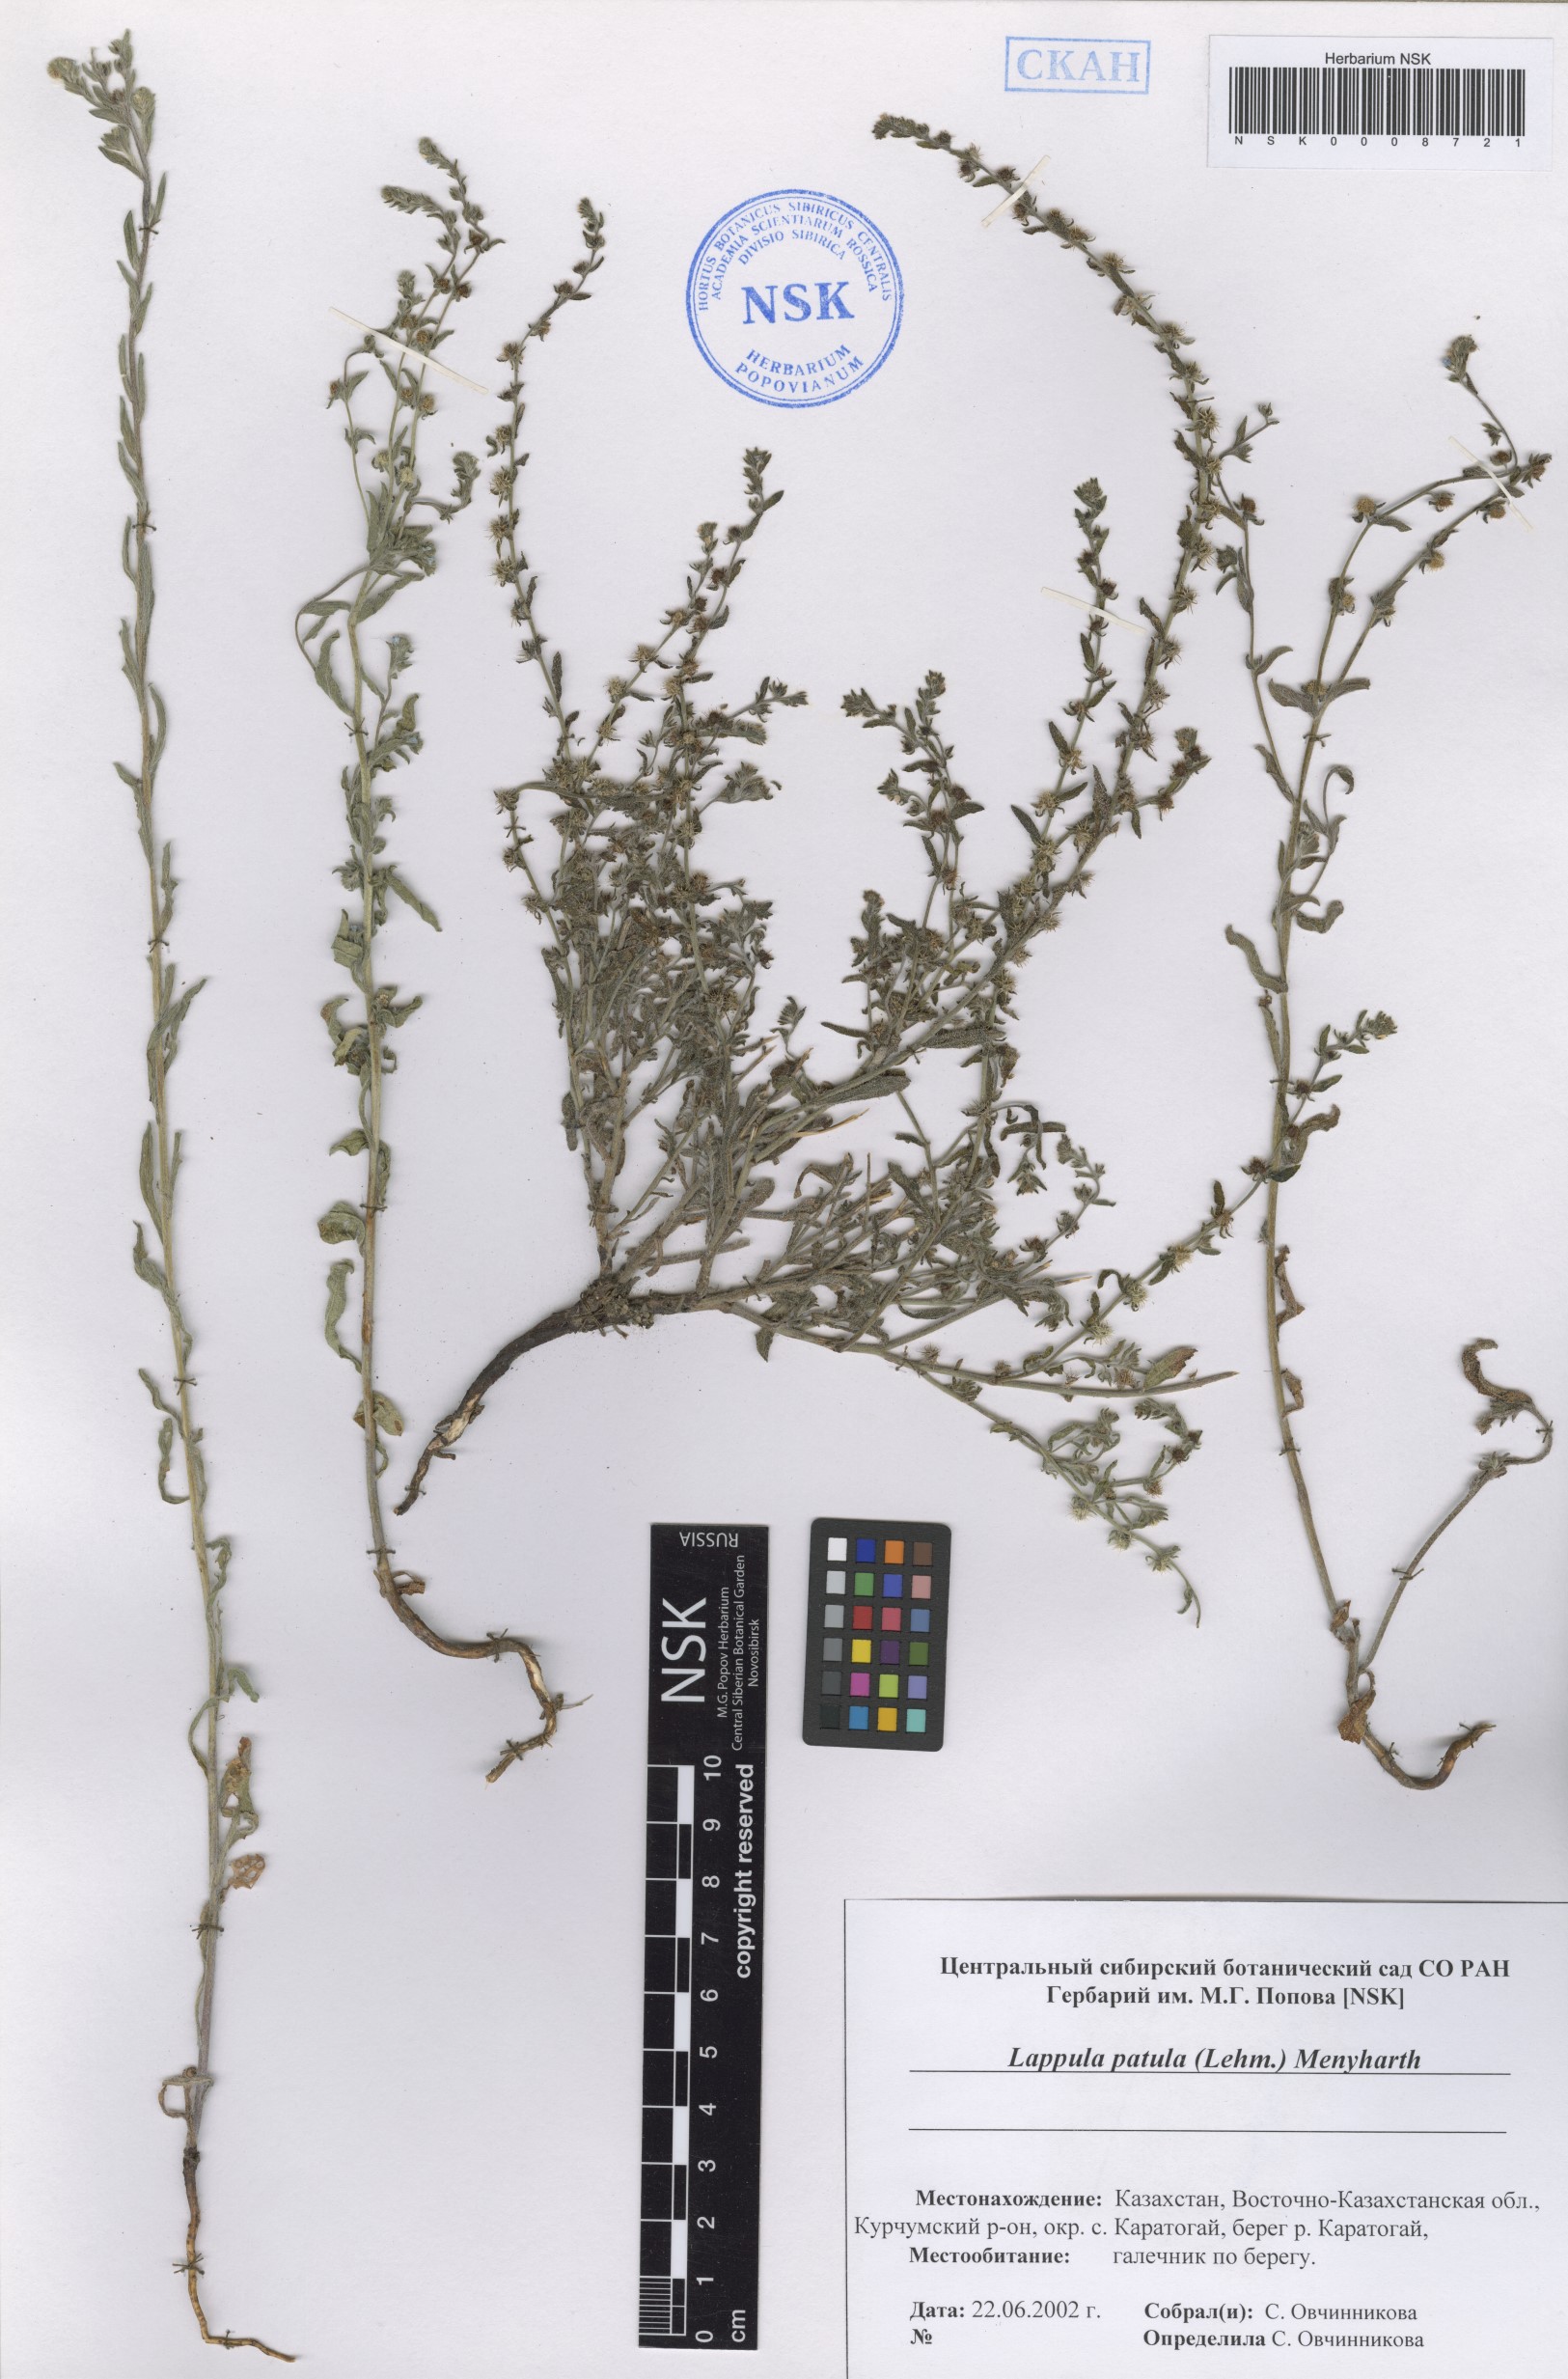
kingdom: Plantae
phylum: Tracheophyta
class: Magnoliopsida
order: Boraginales
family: Boraginaceae
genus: Lappula
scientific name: Lappula patula
